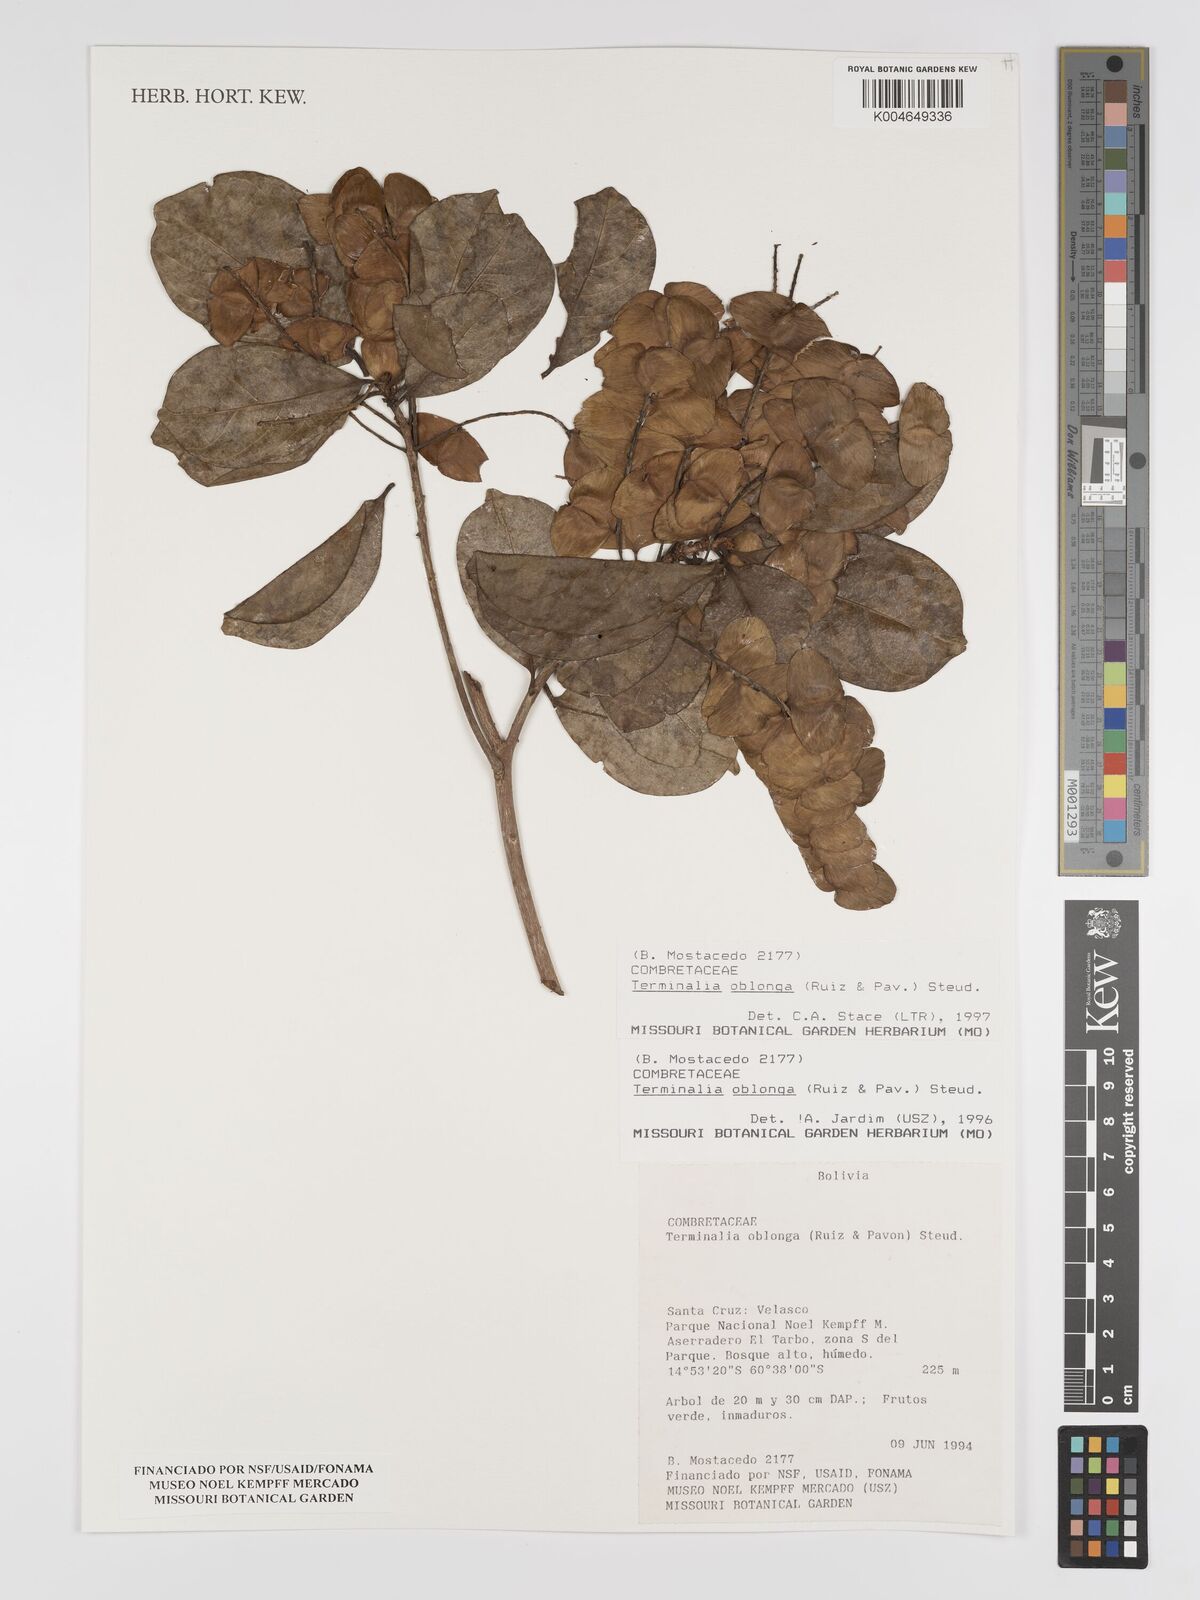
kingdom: Plantae
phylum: Tracheophyta
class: Magnoliopsida
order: Myrtales
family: Combretaceae
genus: Terminalia
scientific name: Terminalia oblonga
